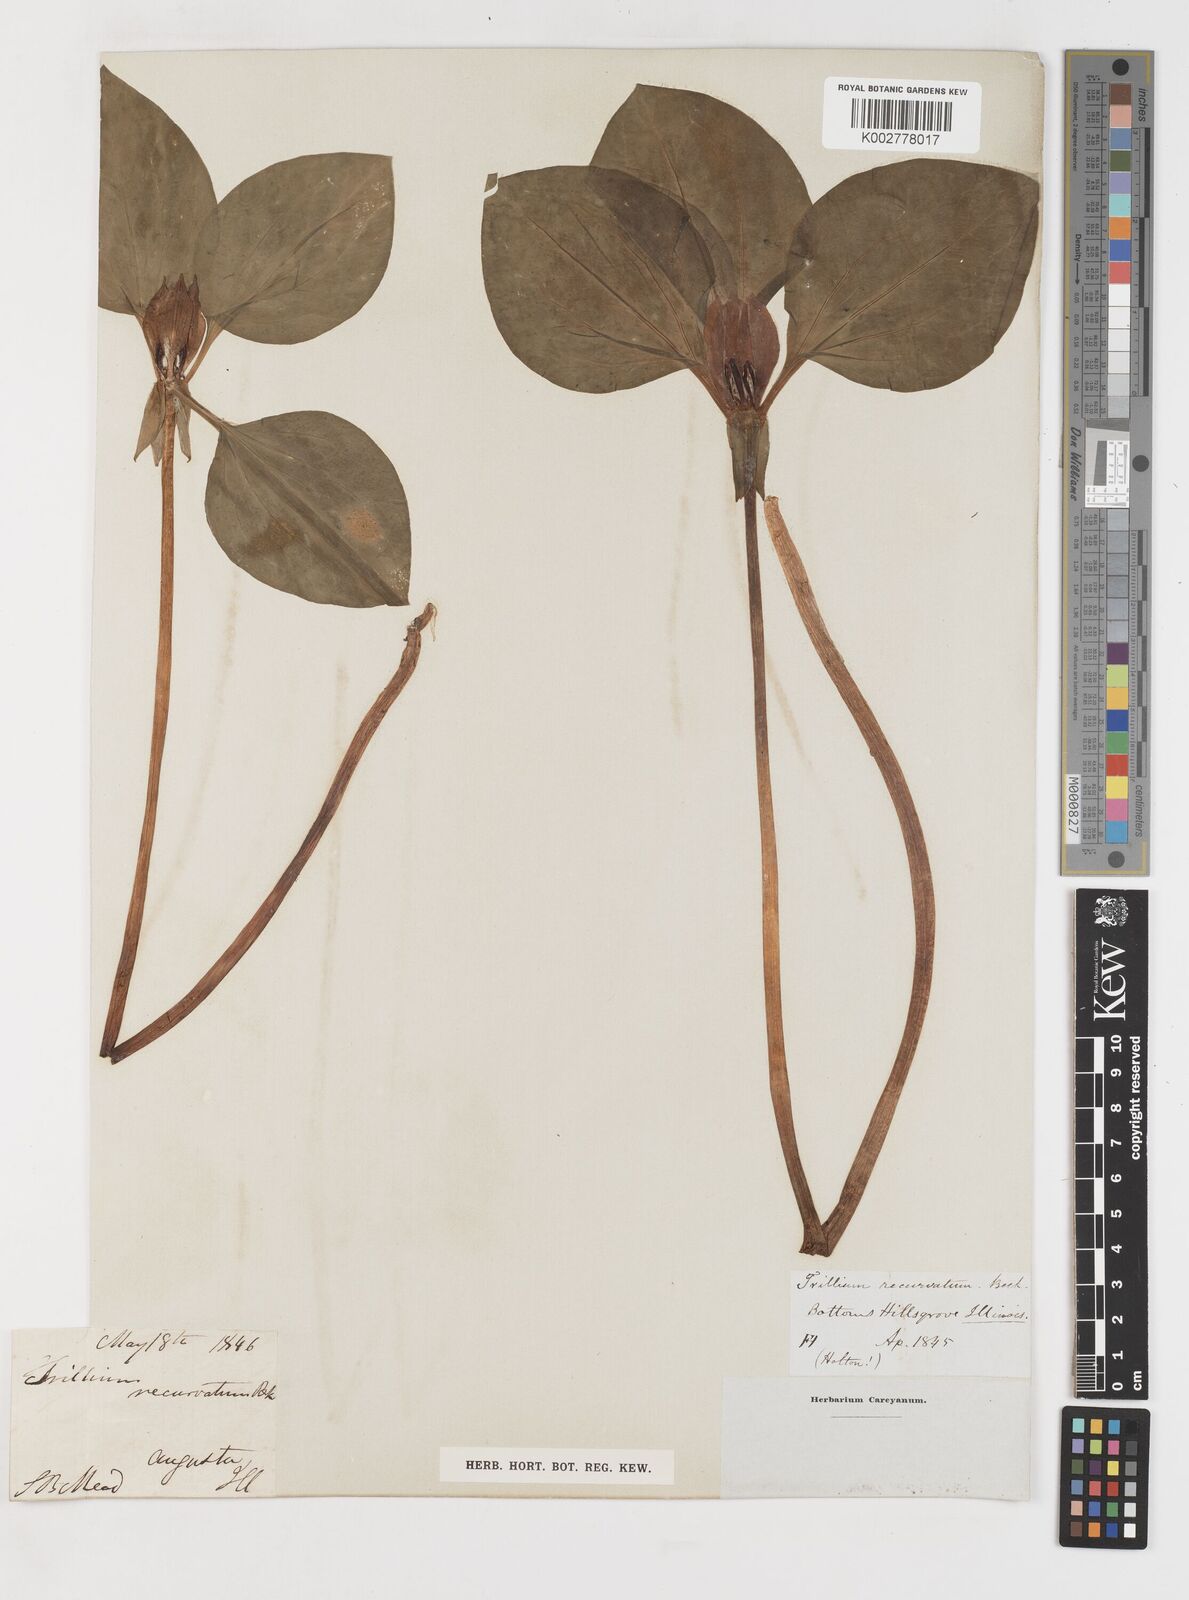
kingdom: Plantae
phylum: Tracheophyta
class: Liliopsida
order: Liliales
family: Melanthiaceae
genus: Trillium
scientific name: Trillium recurvatum
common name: Bloody butcher
